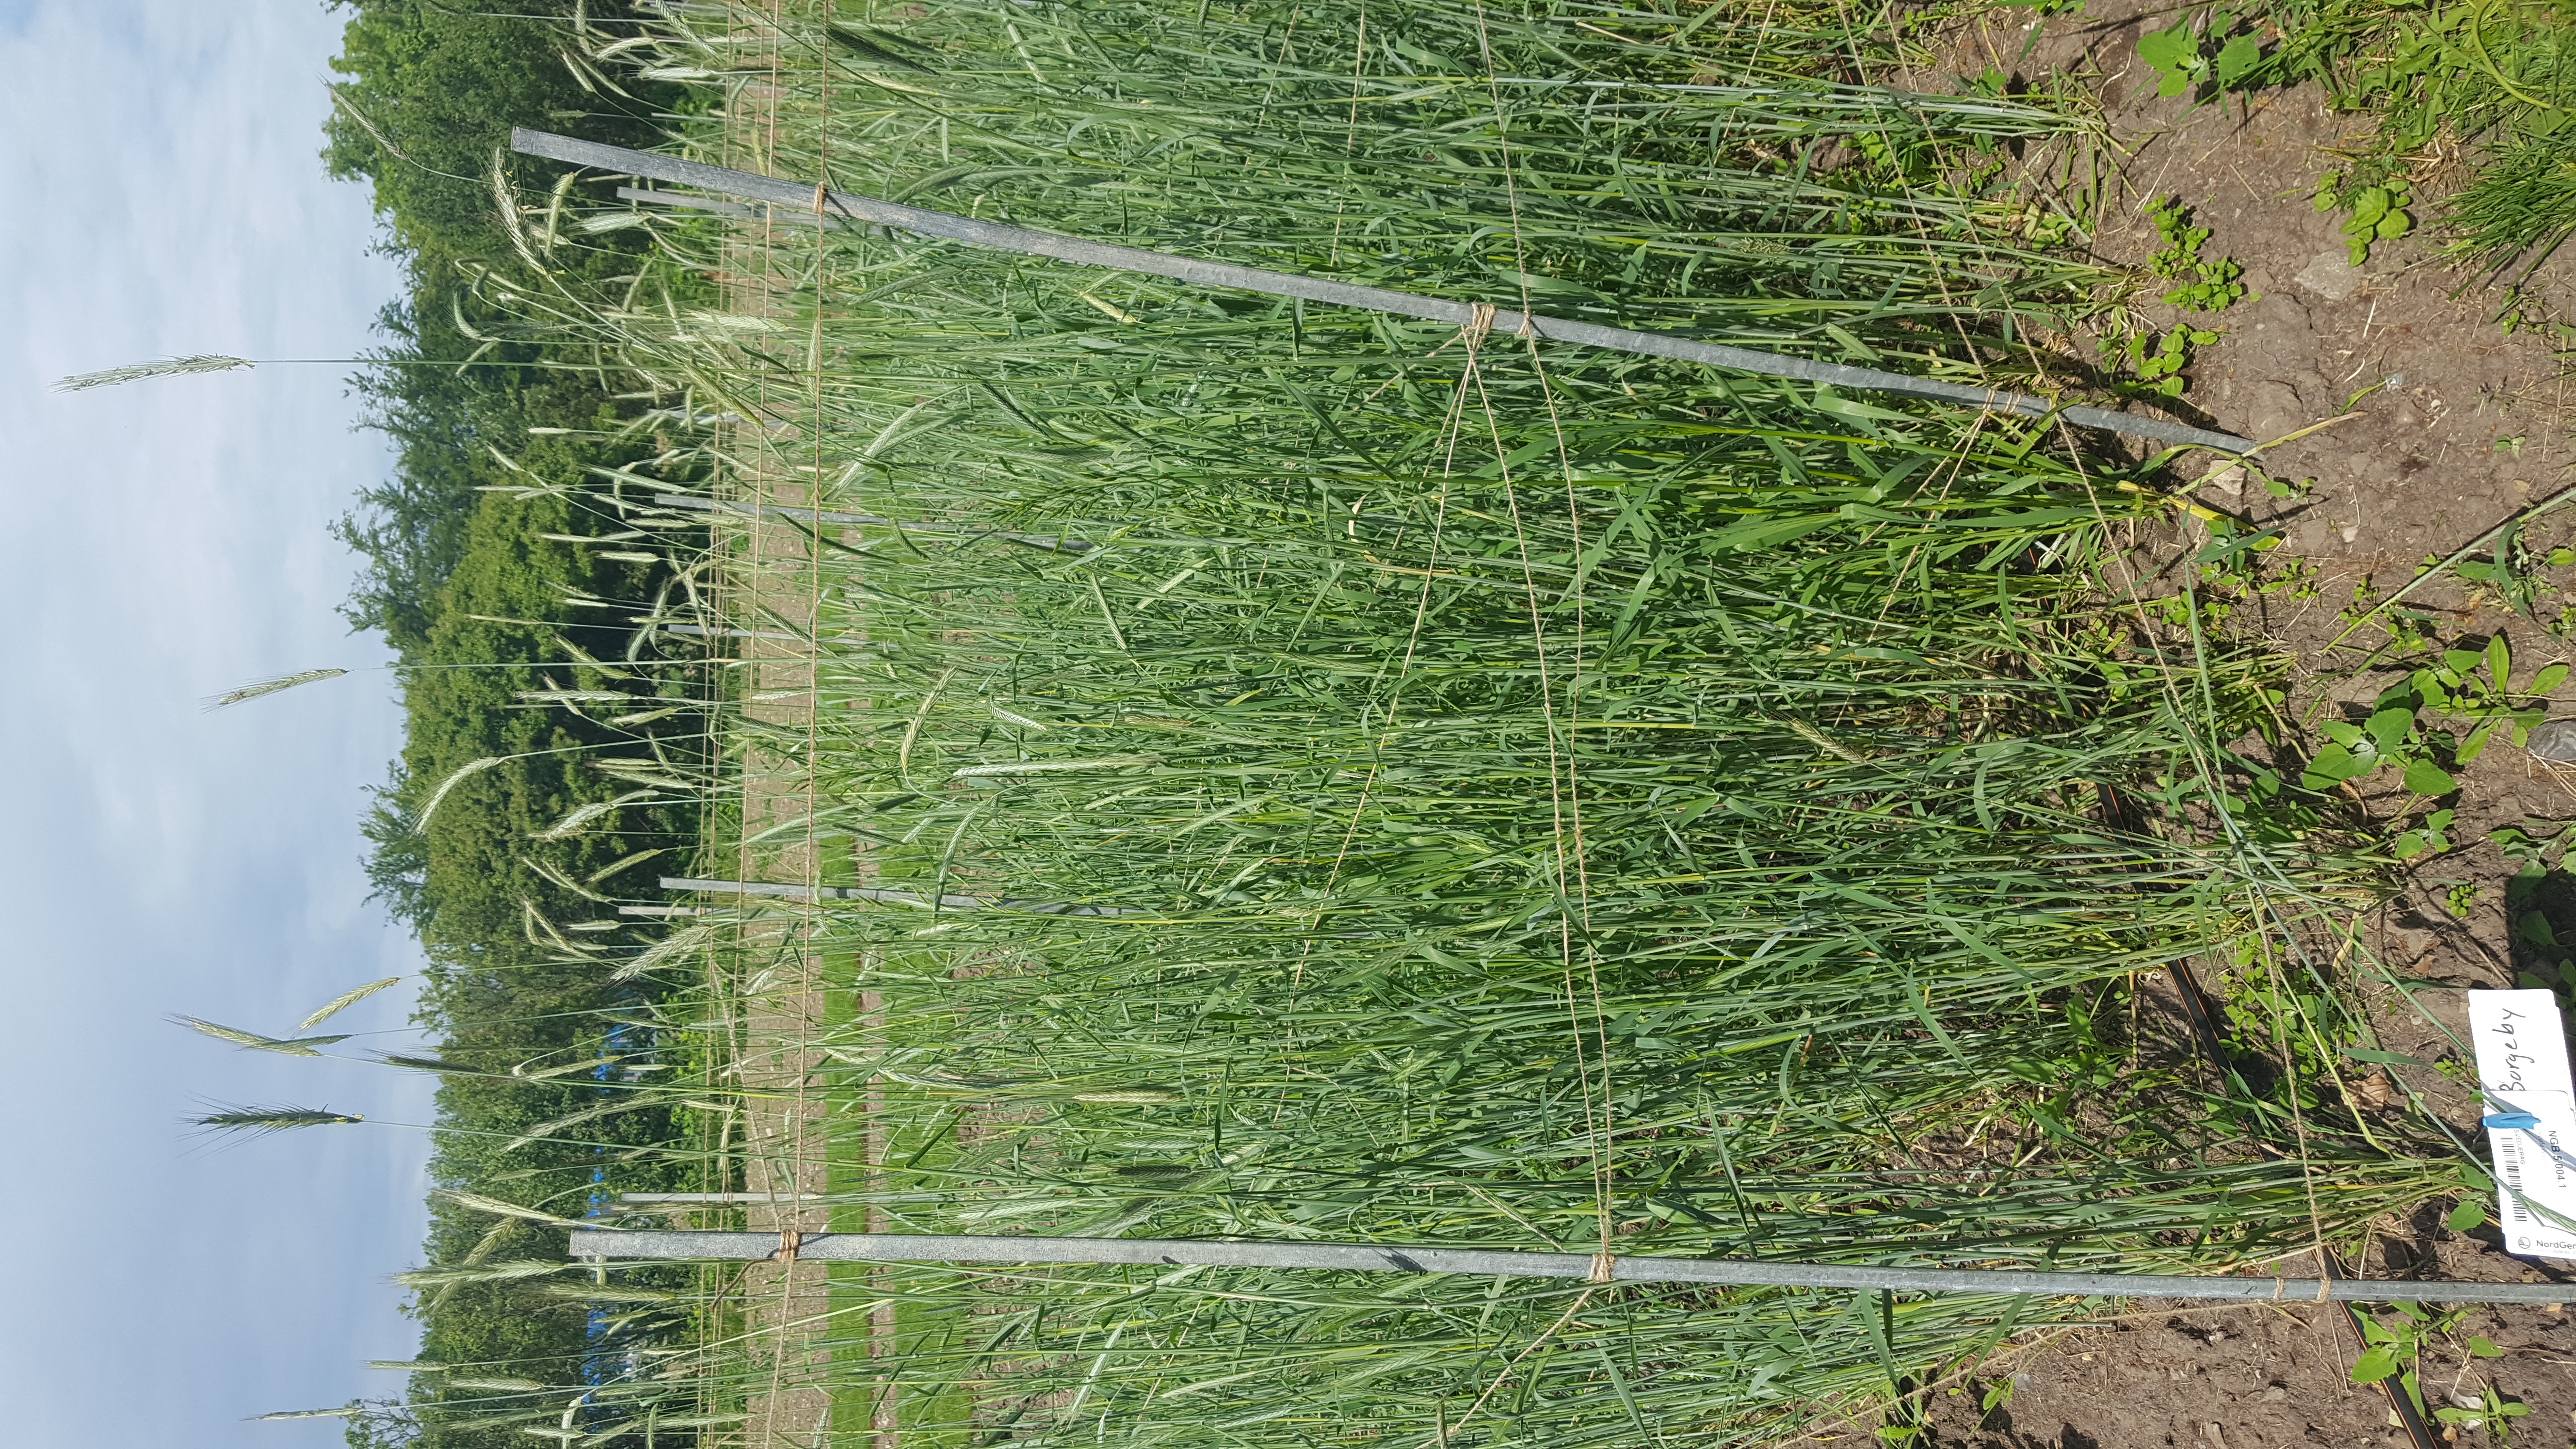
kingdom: Plantae
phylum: Tracheophyta
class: Liliopsida
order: Poales
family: Poaceae
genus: Secale
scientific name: Secale cereale
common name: Rye
